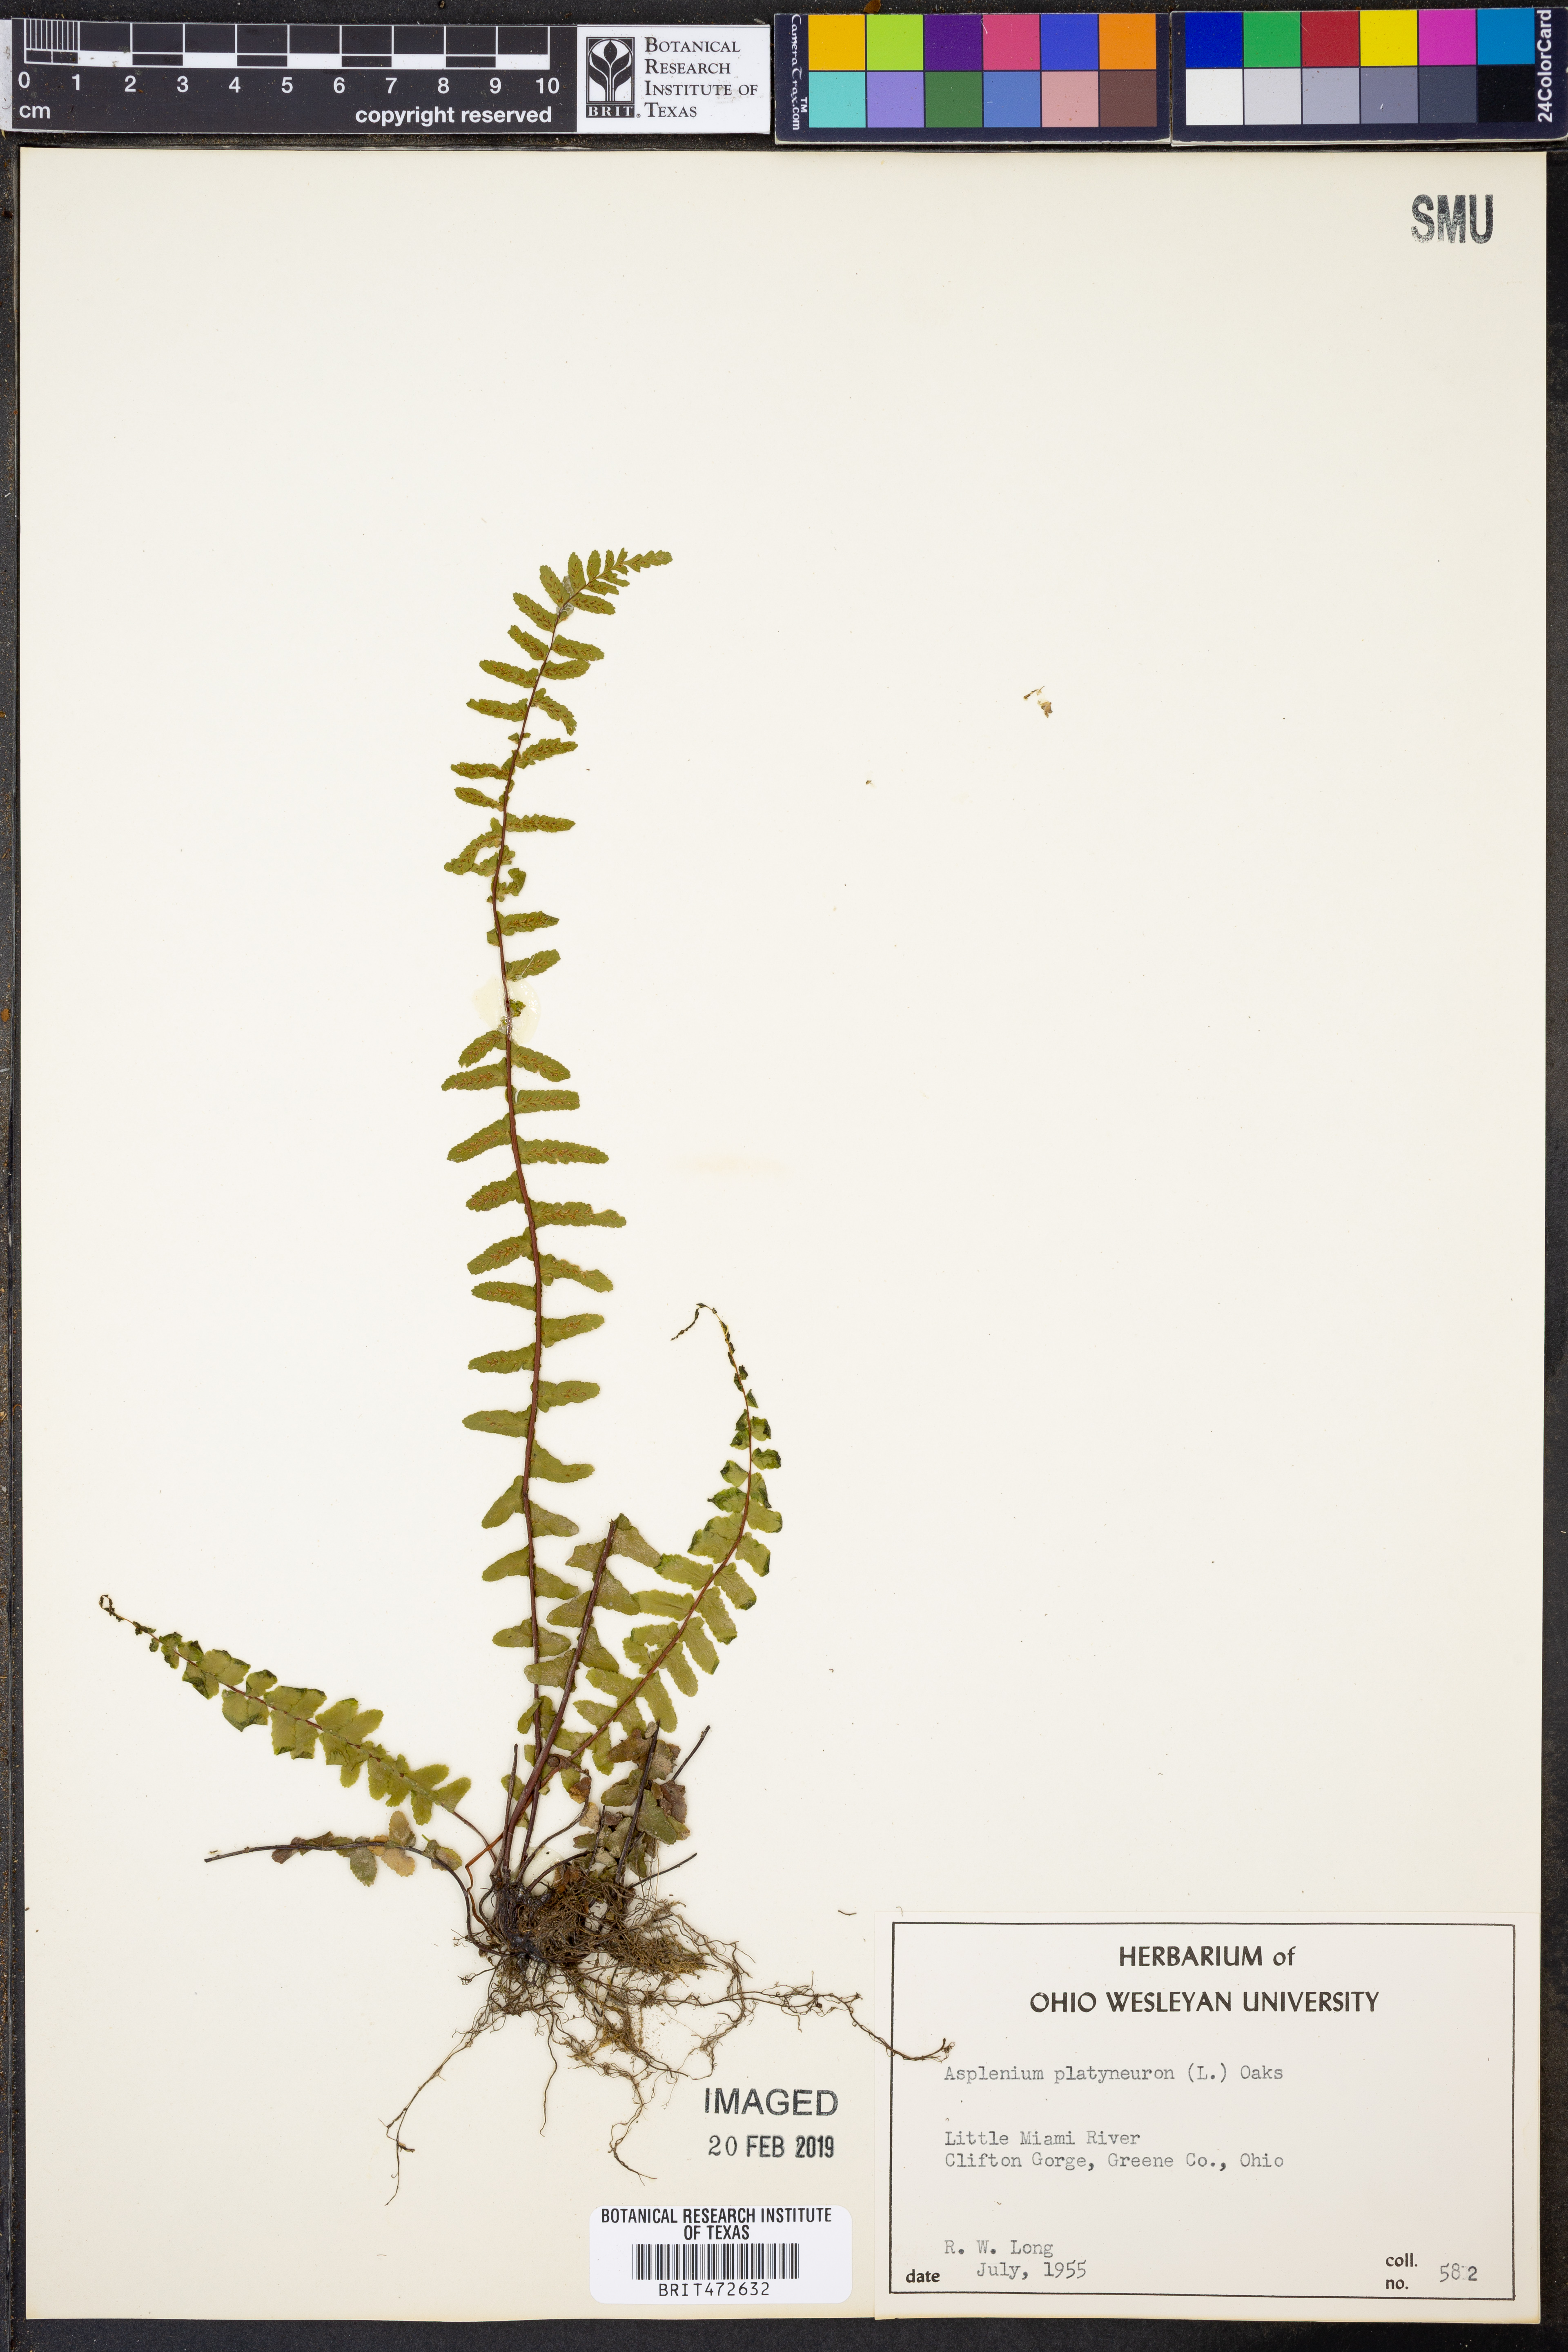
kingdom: Plantae
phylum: Tracheophyta
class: Polypodiopsida
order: Polypodiales
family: Aspleniaceae
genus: Asplenium
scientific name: Asplenium platyneuron
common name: Ebony spleenwort
